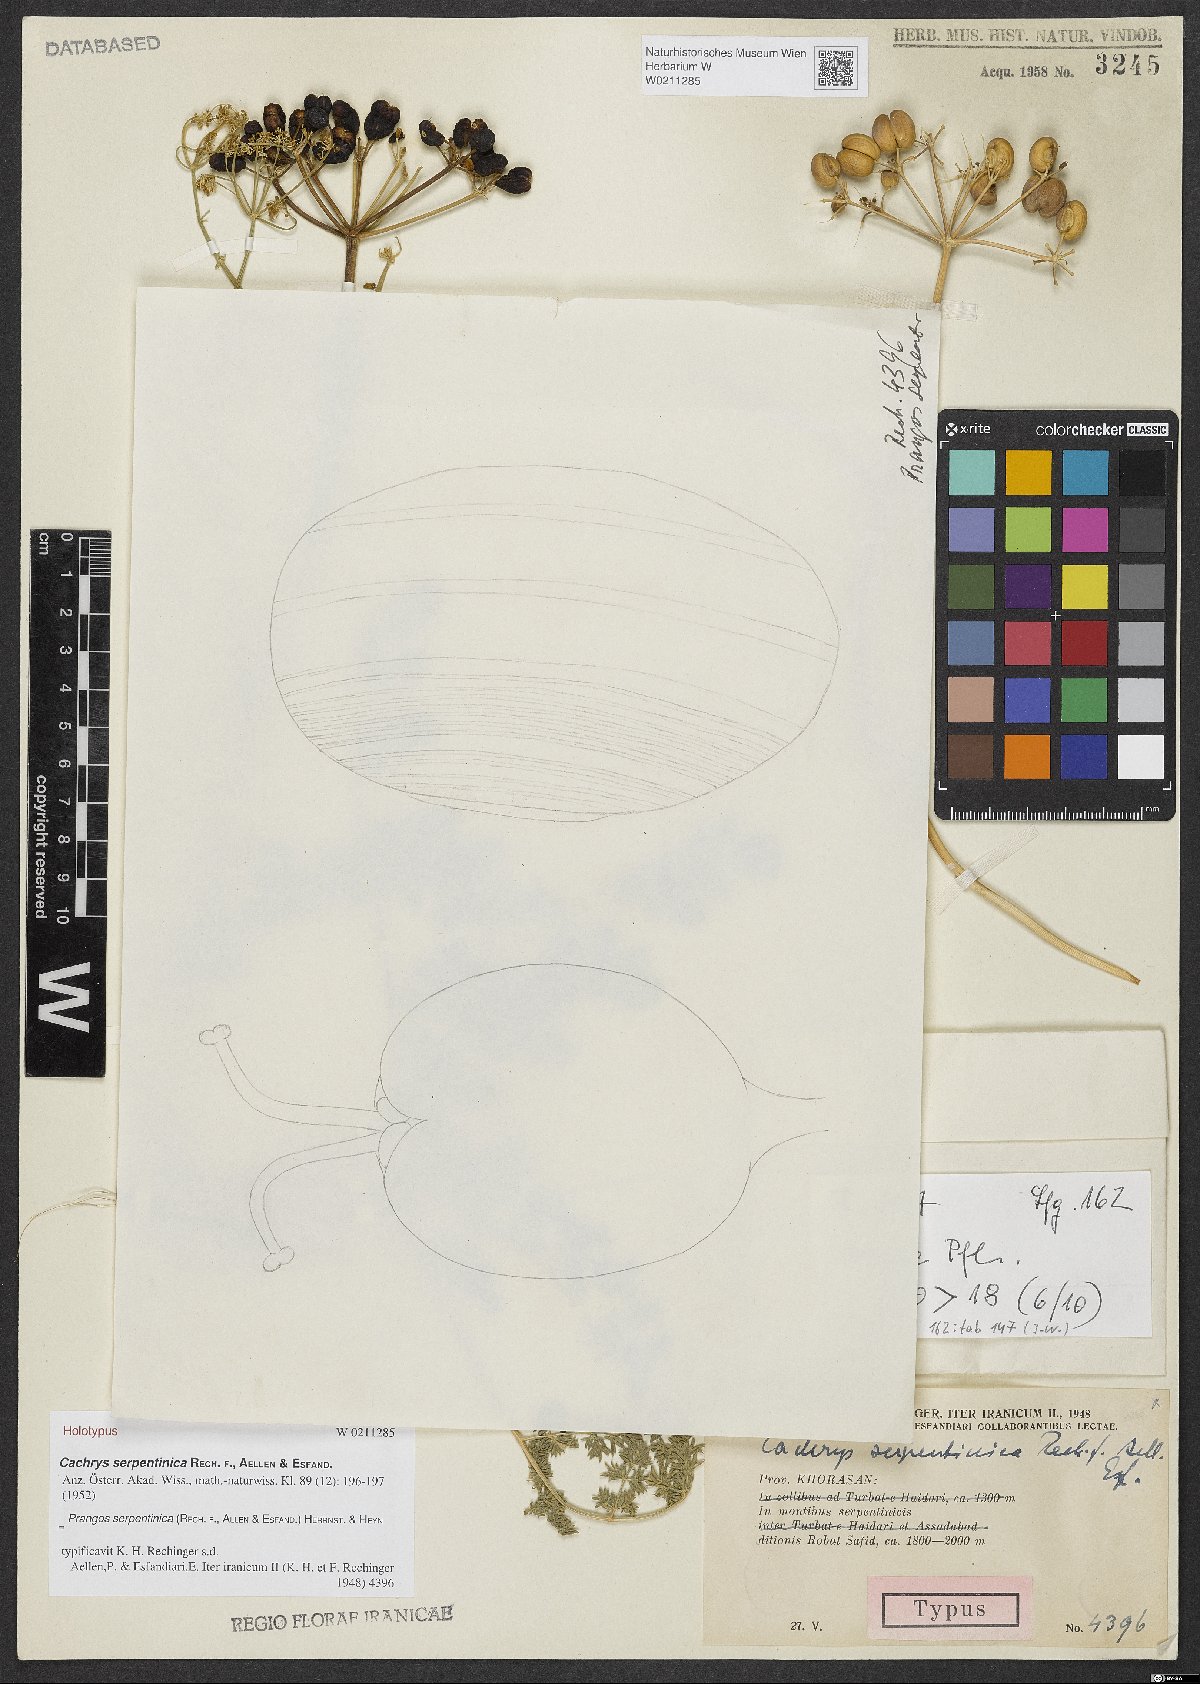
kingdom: Plantae
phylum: Tracheophyta
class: Magnoliopsida
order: Apiales
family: Apiaceae
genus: Prangos
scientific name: Prangos serpentinica
